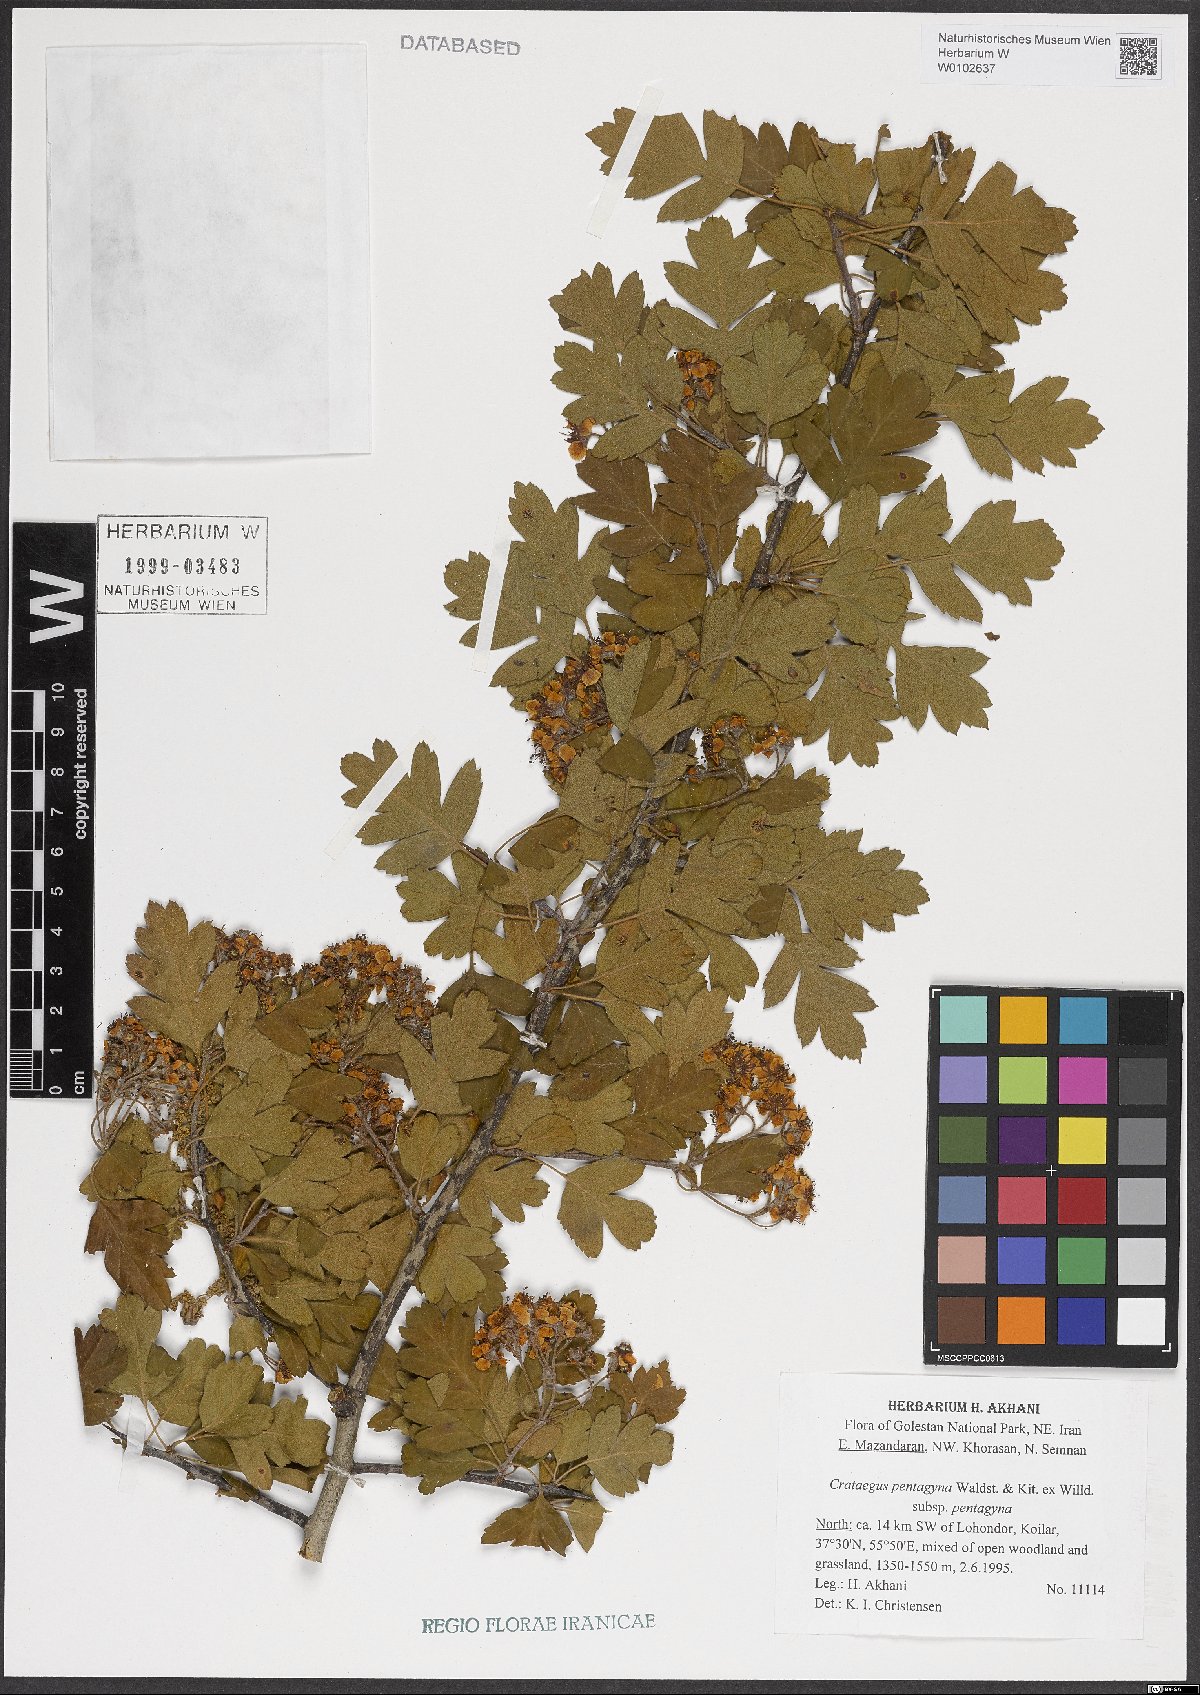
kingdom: Plantae
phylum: Tracheophyta
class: Magnoliopsida
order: Rosales
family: Rosaceae
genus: Crataegus
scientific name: Crataegus pentagyna
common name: Small-flowered black hawthorn
